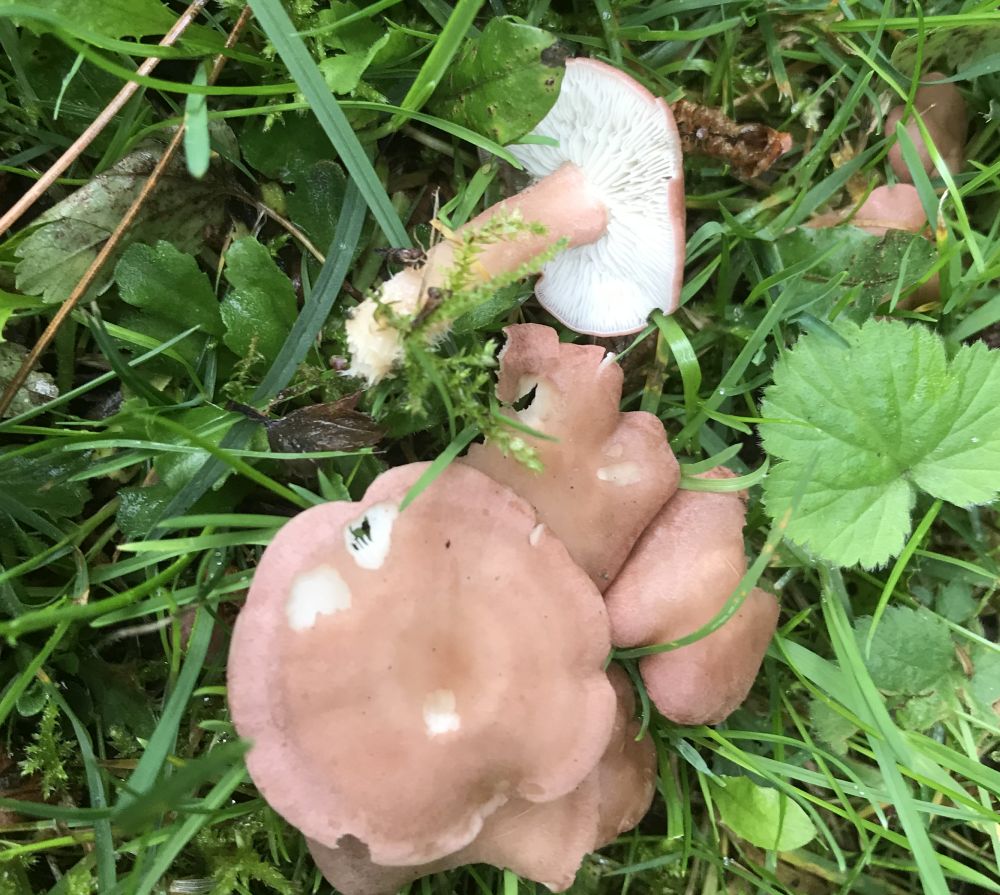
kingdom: Fungi
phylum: Basidiomycota
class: Agaricomycetes
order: Agaricales
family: Lyophyllaceae
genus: Calocybe
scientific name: Calocybe carnea
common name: rosa fagerhat
